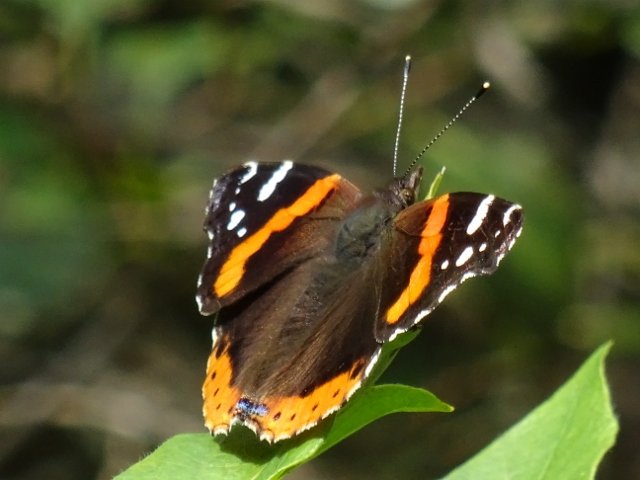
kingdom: Animalia
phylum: Arthropoda
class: Insecta
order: Lepidoptera
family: Nymphalidae
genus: Vanessa
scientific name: Vanessa atalanta
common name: Red Admiral
